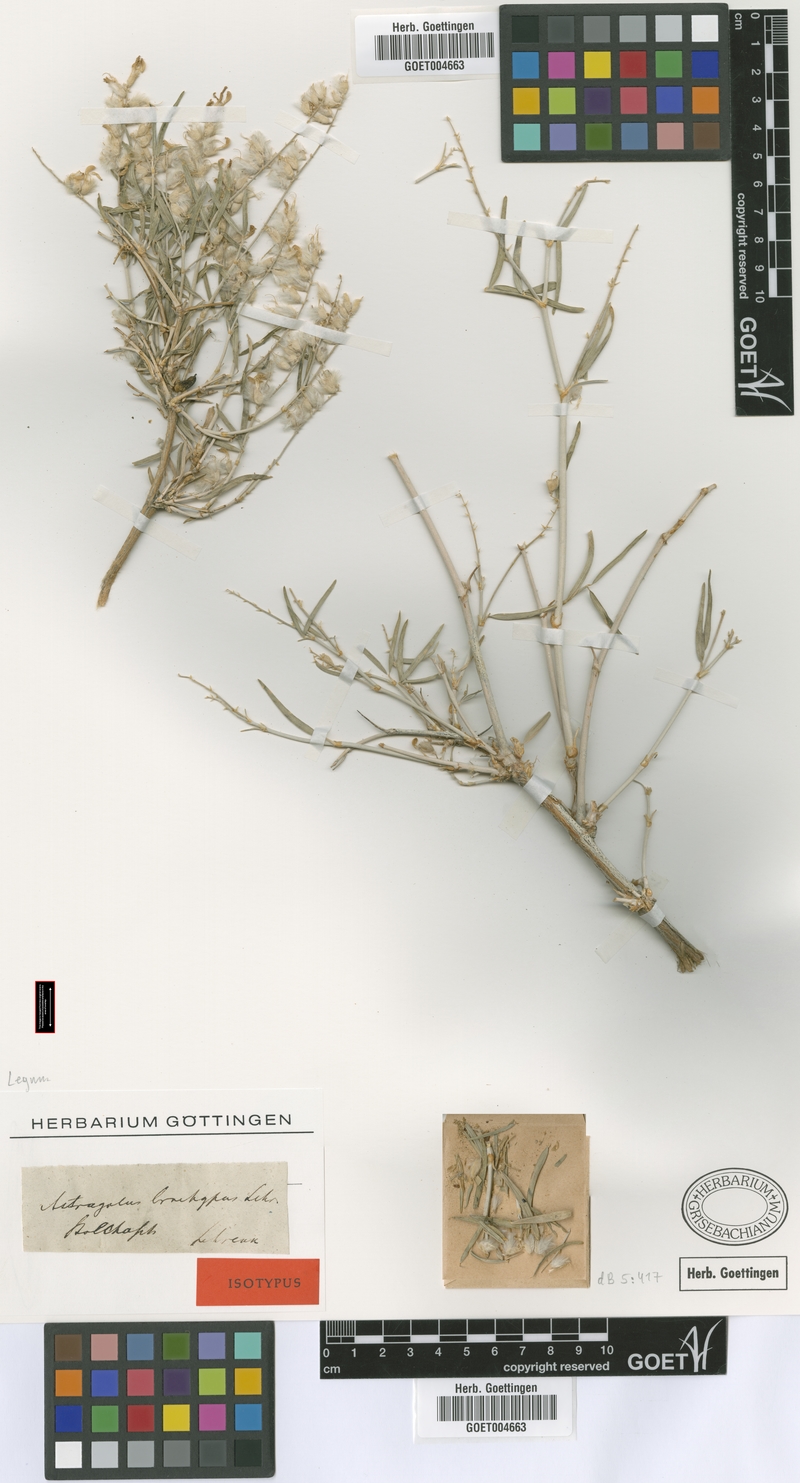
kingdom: Plantae
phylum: Tracheophyta
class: Magnoliopsida
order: Fabales
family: Fabaceae
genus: Astragalus
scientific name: Astragalus brachypus
